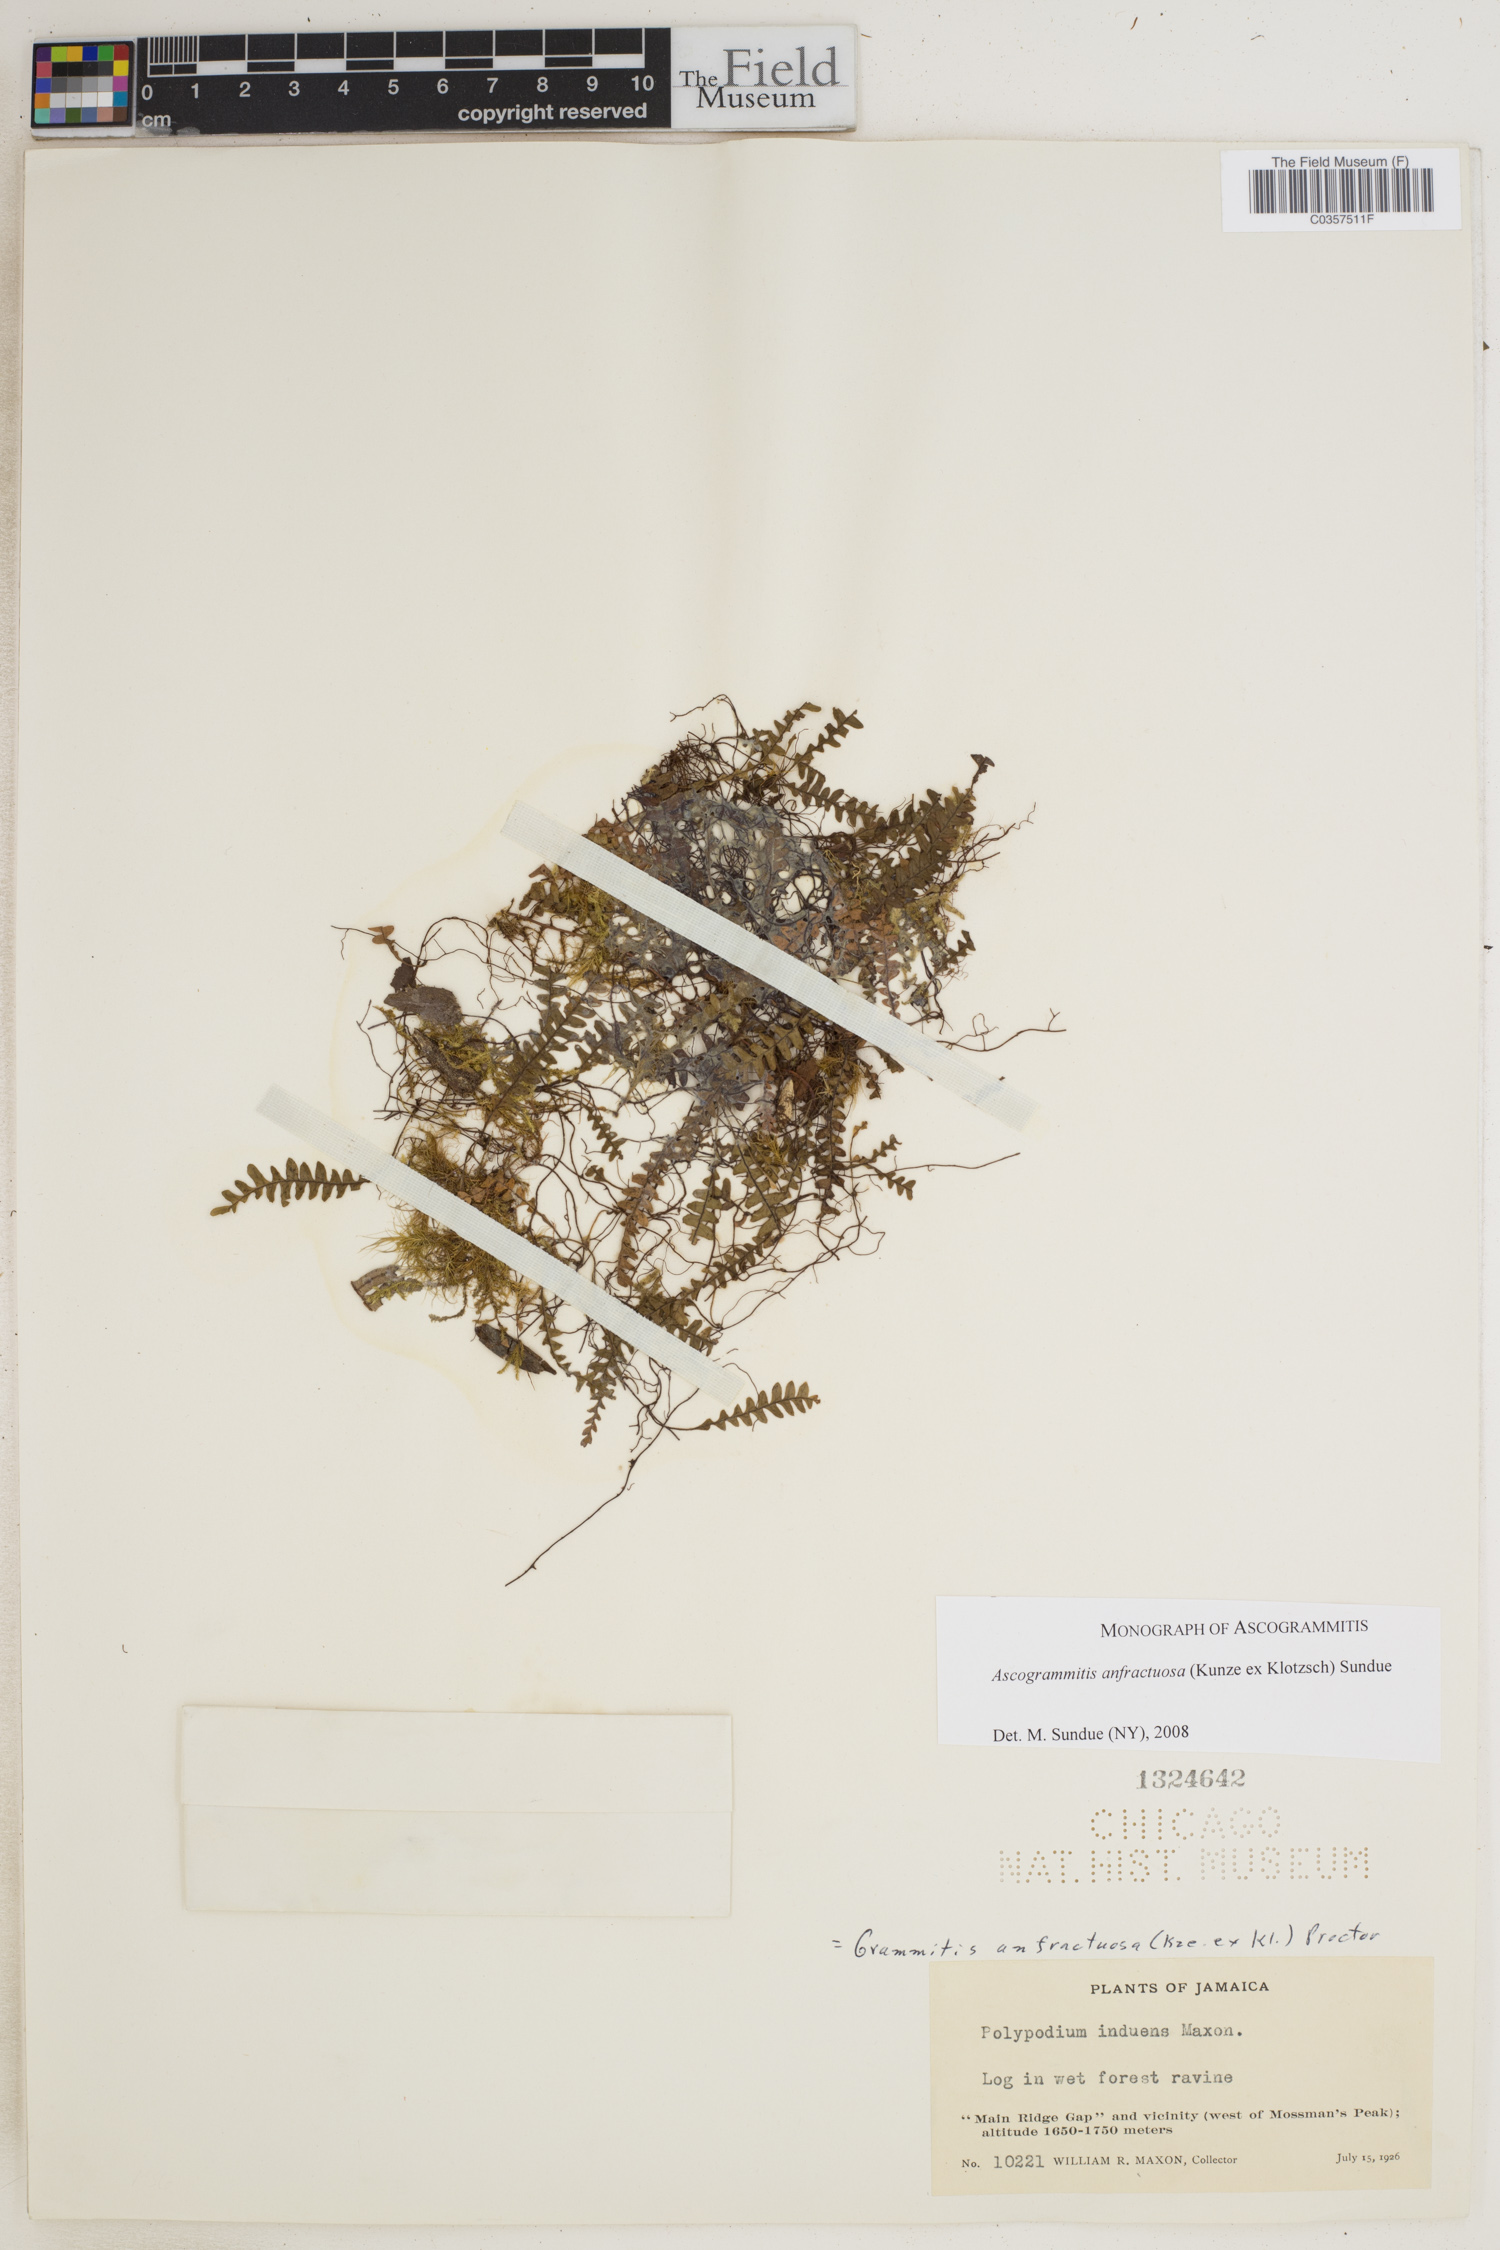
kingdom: Plantae
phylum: Tracheophyta
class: Polypodiopsida
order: Polypodiales
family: Polypodiaceae
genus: Ascogrammitis
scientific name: Ascogrammitis anfractuosa
